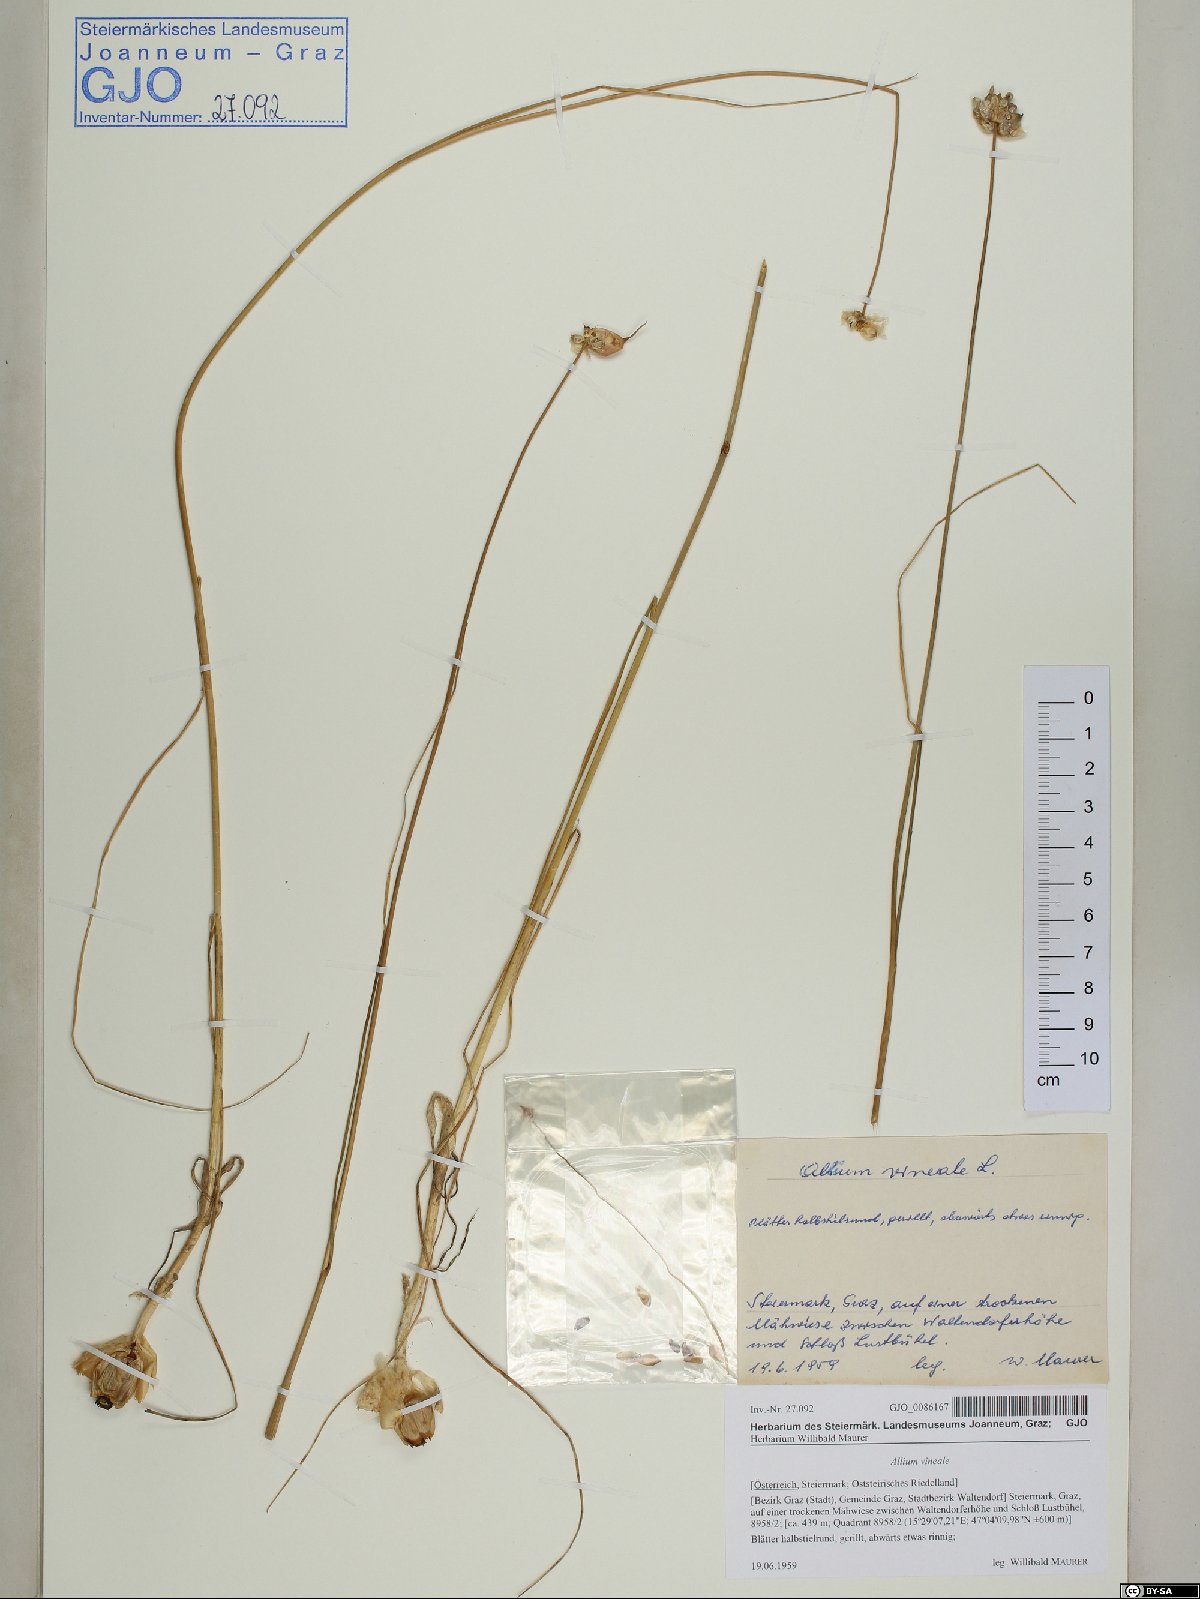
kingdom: Plantae
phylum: Tracheophyta
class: Liliopsida
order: Asparagales
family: Amaryllidaceae
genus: Allium
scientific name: Allium vineale
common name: Crow garlic
